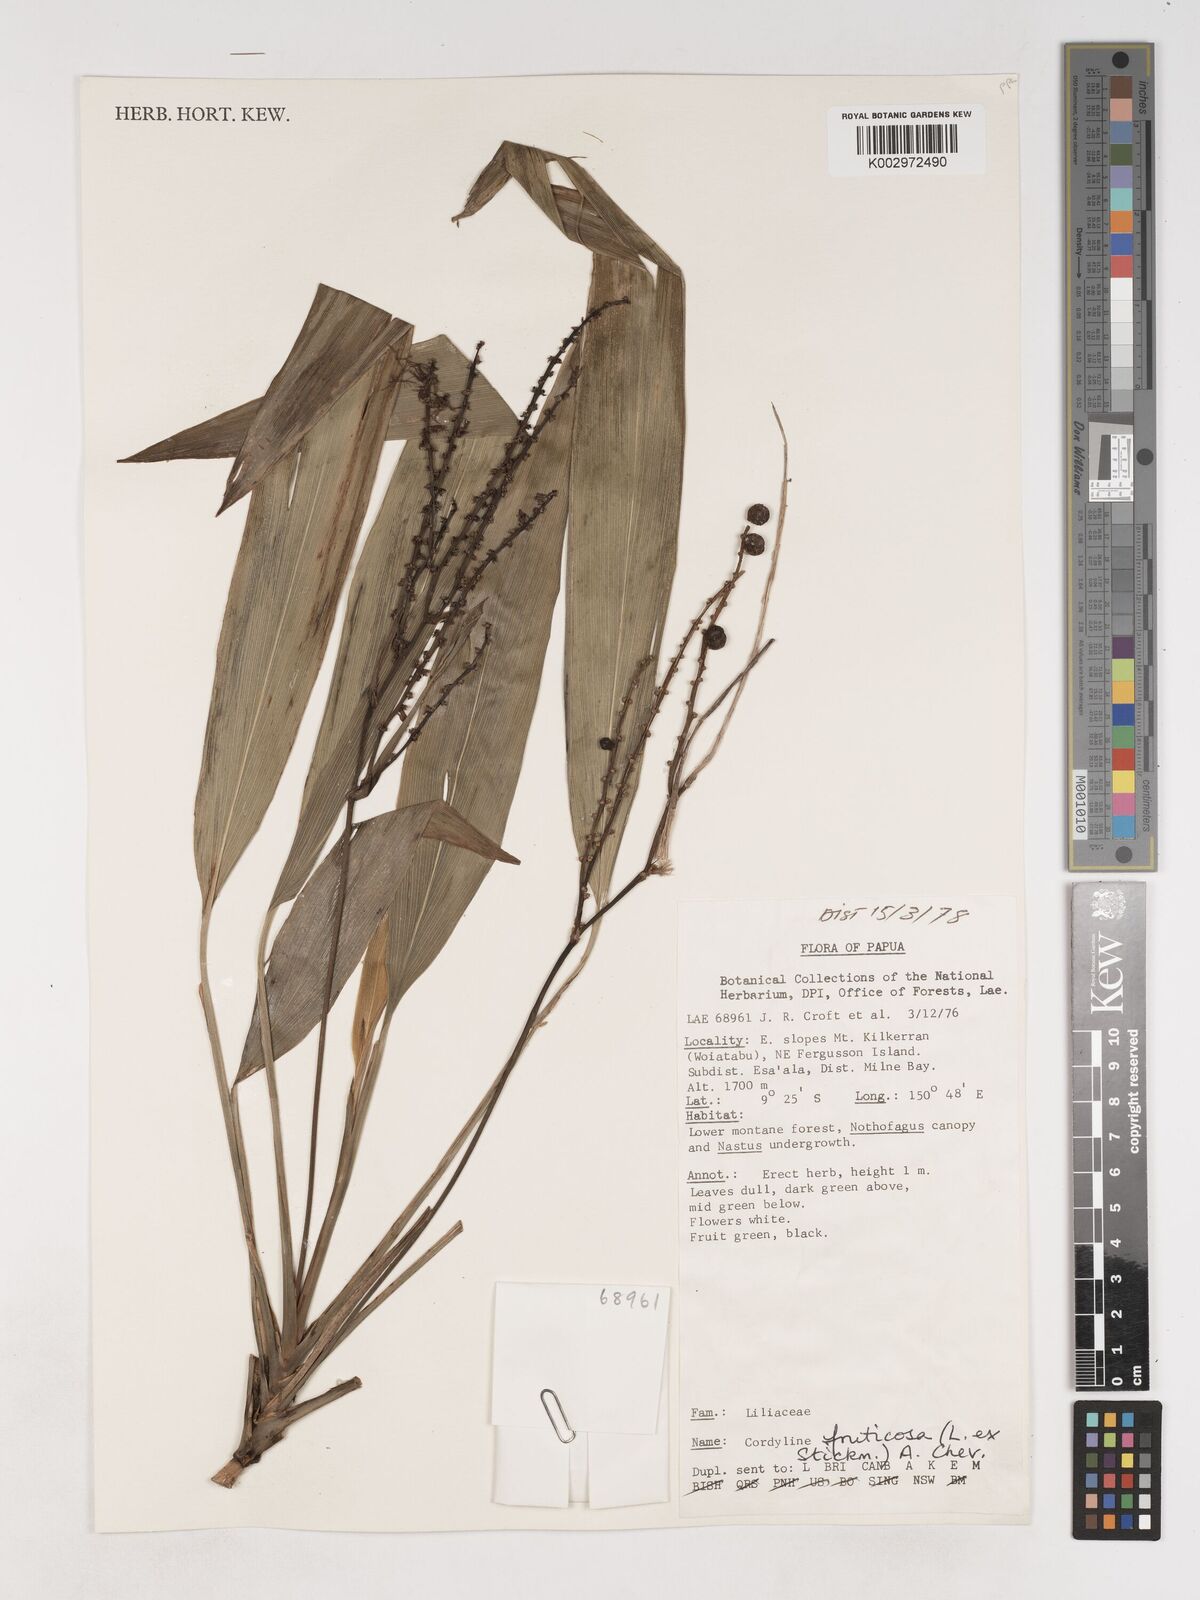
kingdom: Plantae
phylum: Tracheophyta
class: Liliopsida
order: Asparagales
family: Asparagaceae
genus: Cordyline
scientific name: Cordyline fruticosa
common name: Good-luck-plant
